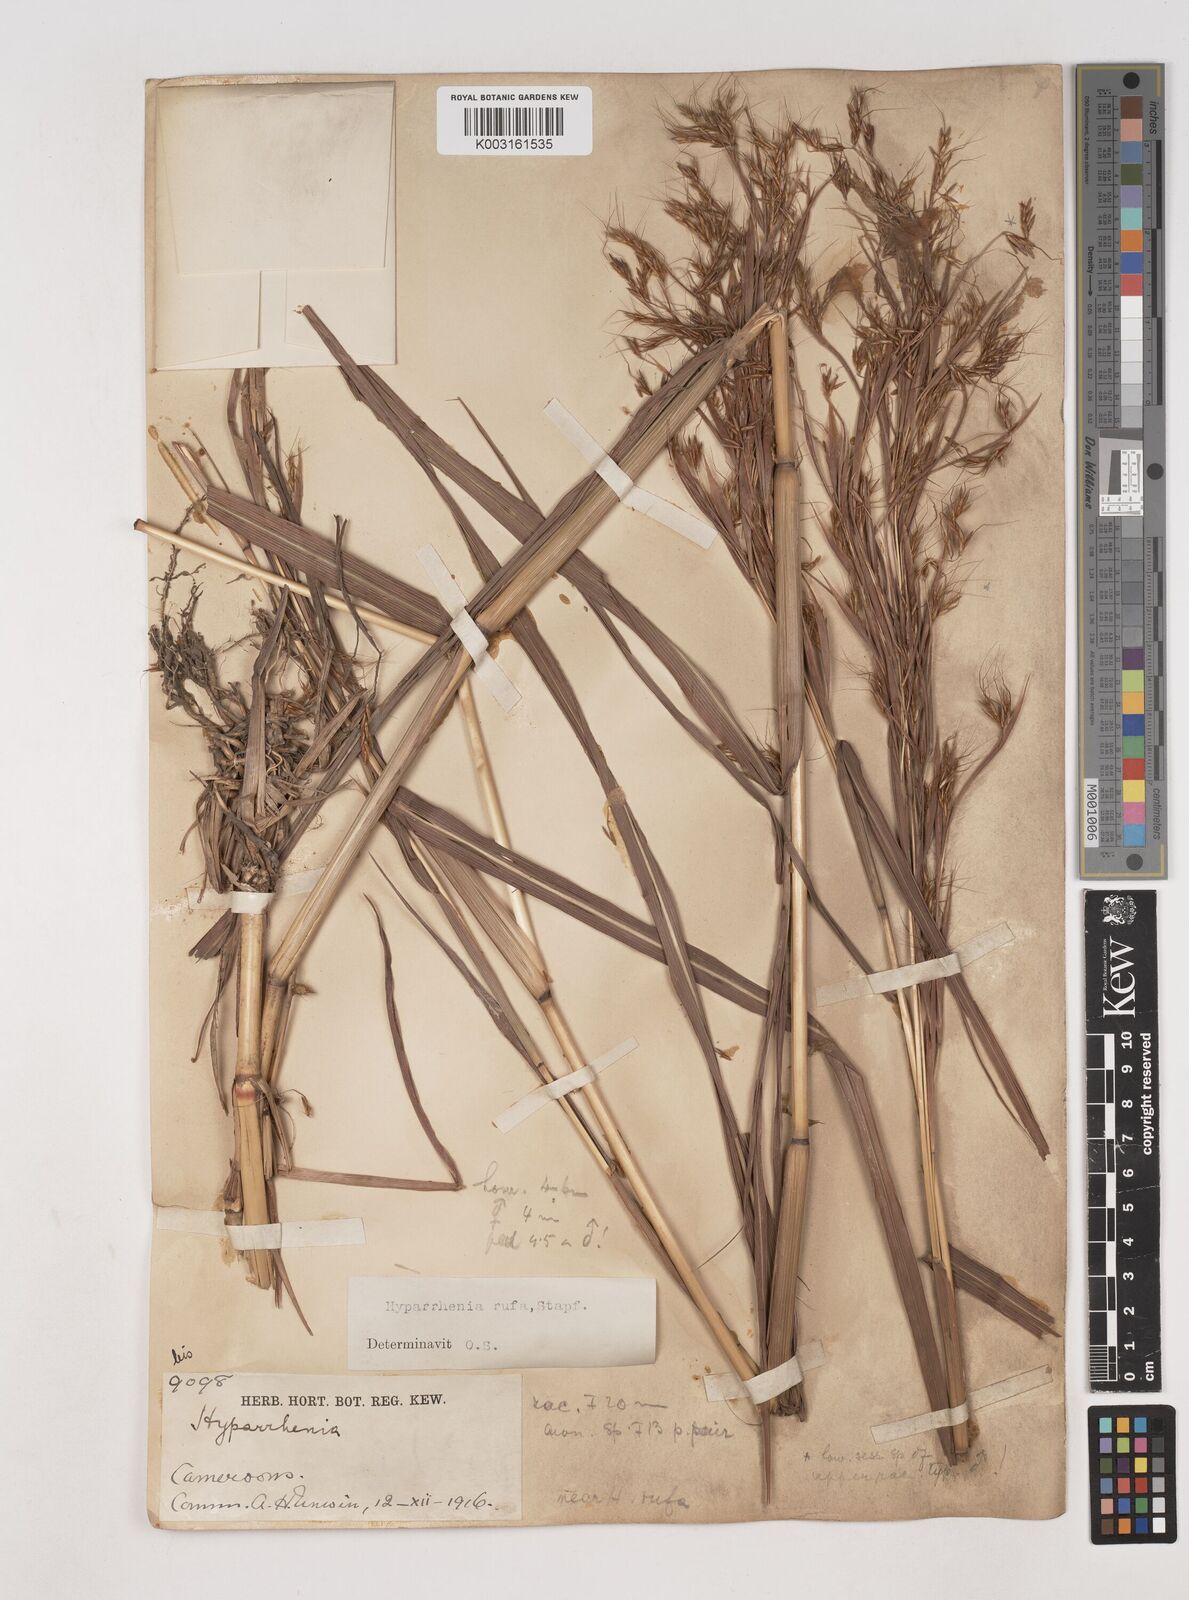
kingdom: Plantae
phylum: Tracheophyta
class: Liliopsida
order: Poales
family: Poaceae
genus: Hyparrhenia
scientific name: Hyparrhenia rufa
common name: Jaraguagrass
